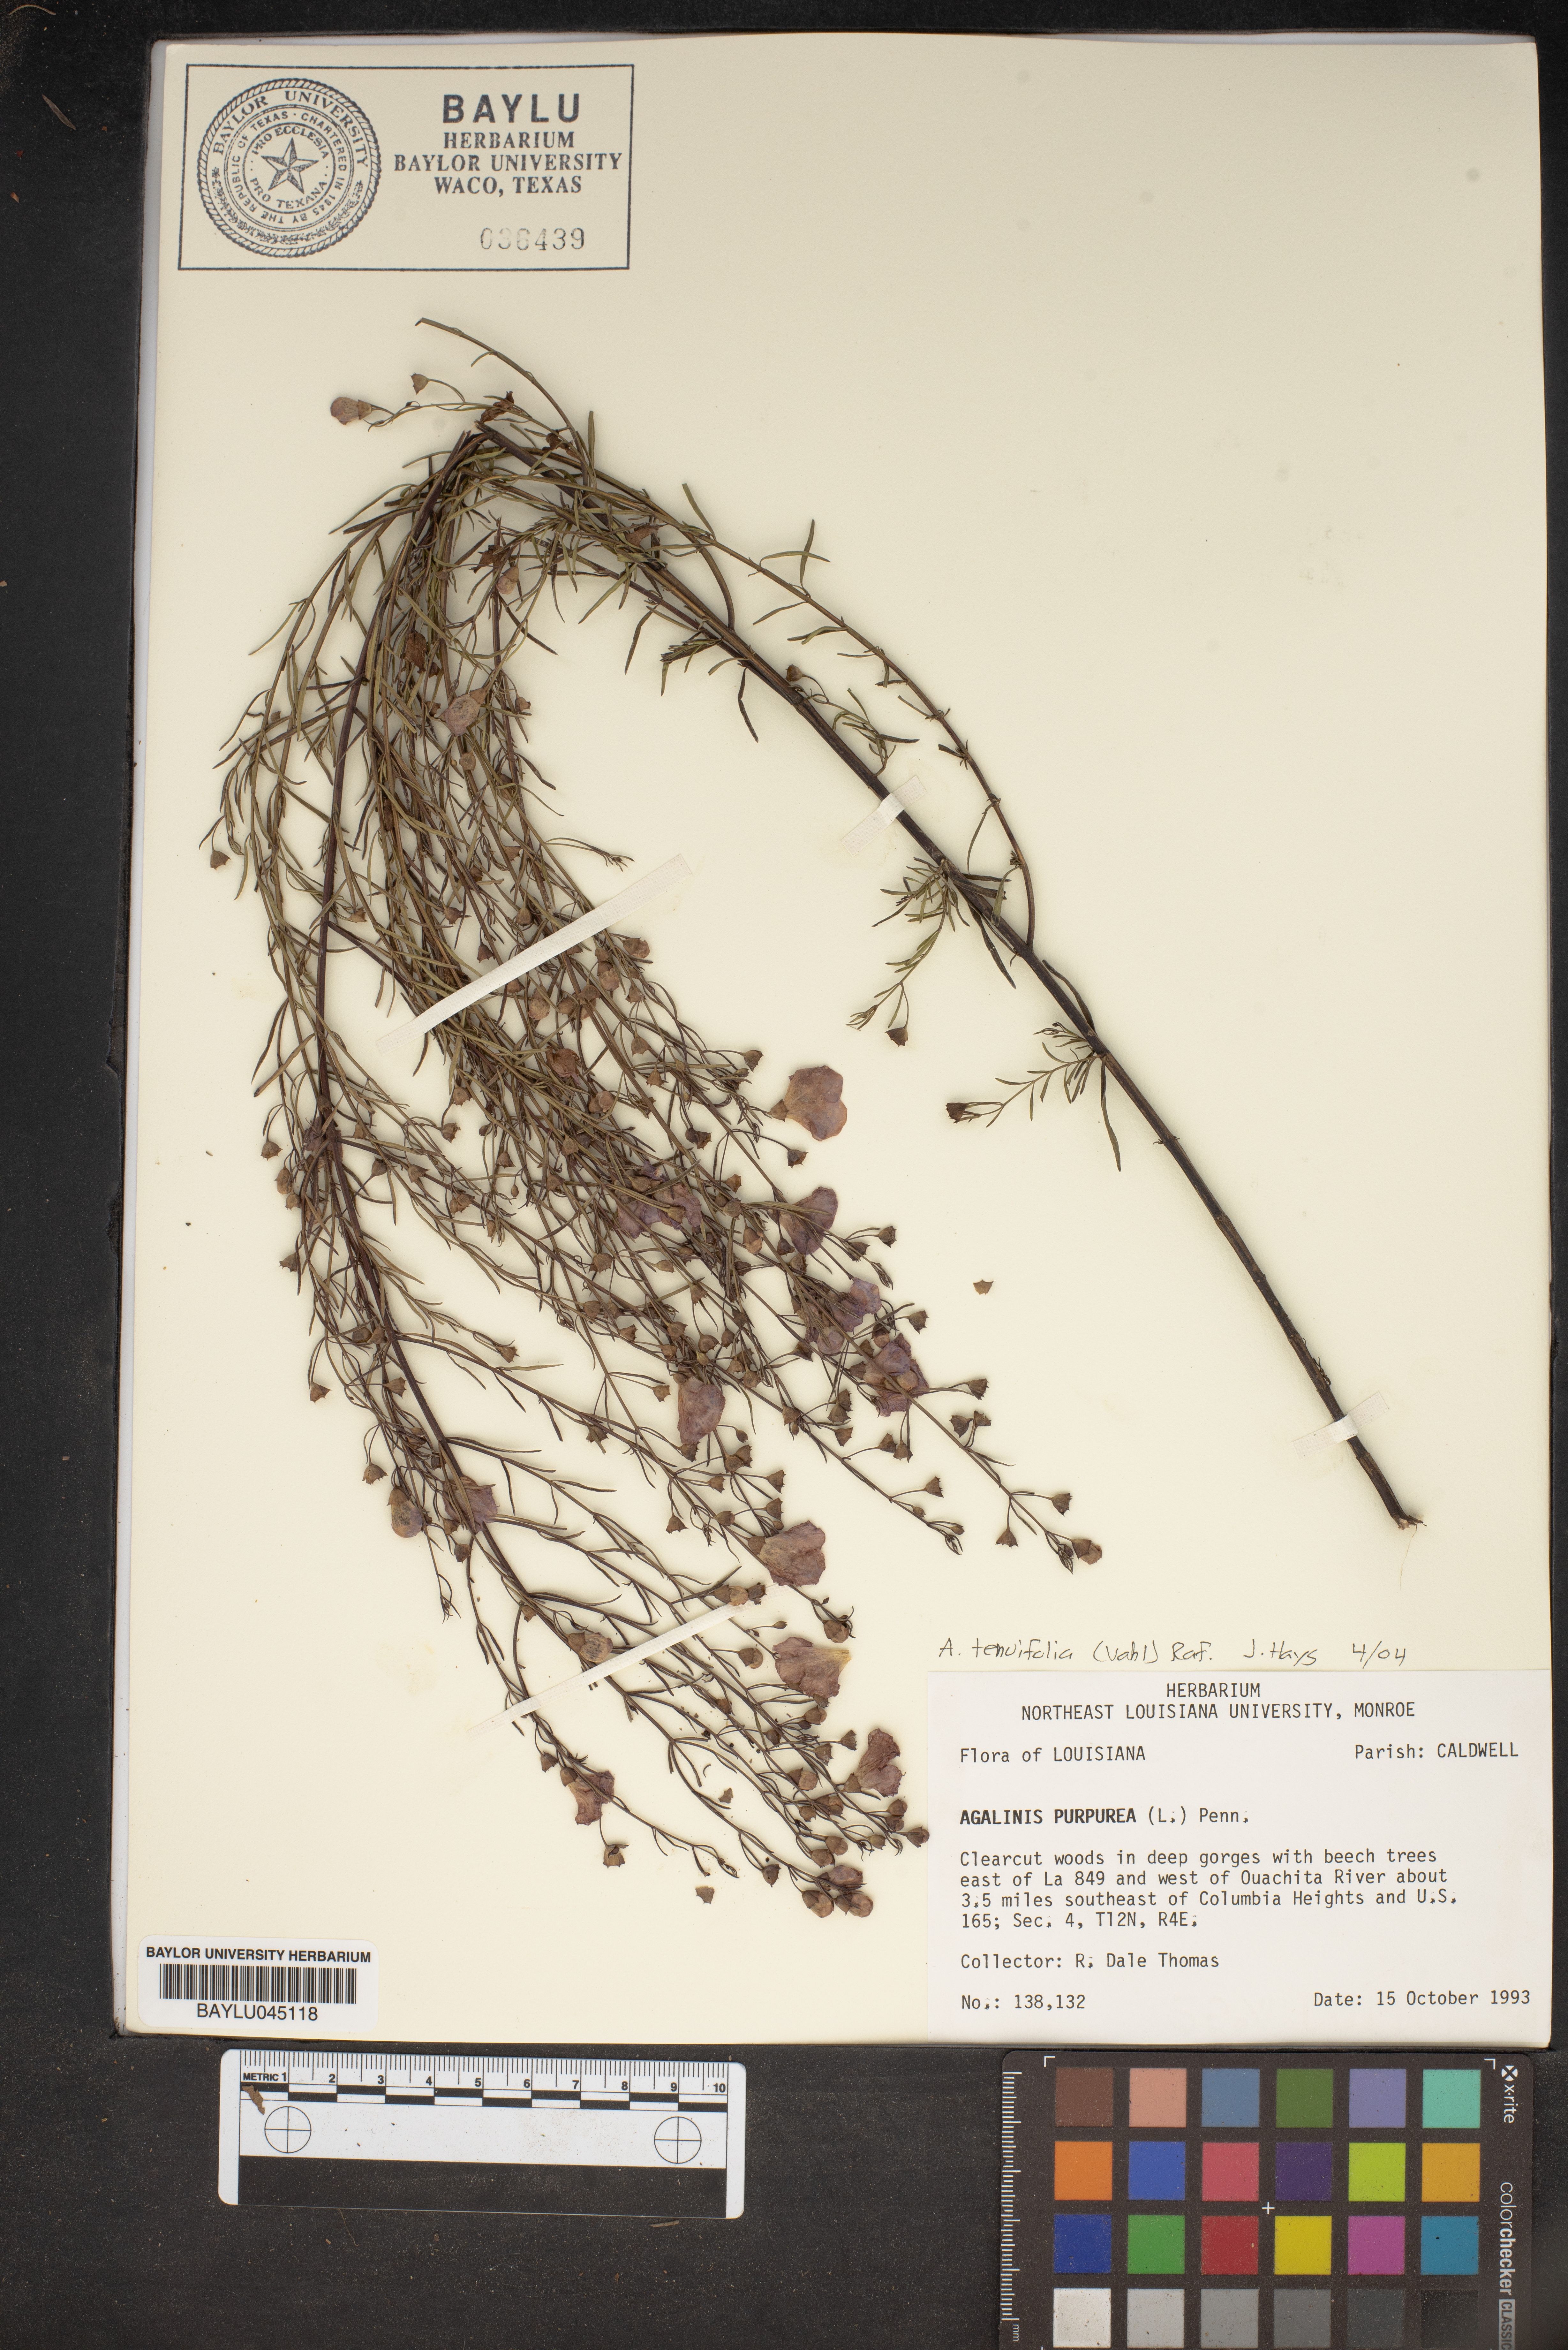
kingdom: Plantae
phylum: Tracheophyta
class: Magnoliopsida
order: Lamiales
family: Orobanchaceae
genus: Agalinis
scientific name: Agalinis purpurea
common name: Purple false foxglove
